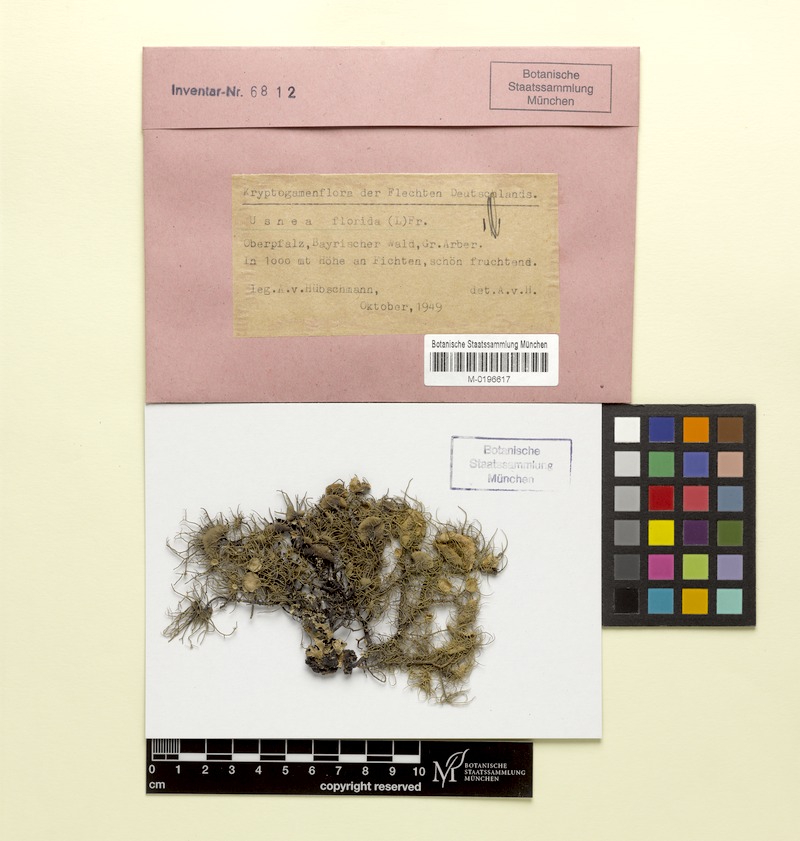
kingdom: Fungi
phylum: Ascomycota
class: Lecanoromycetes
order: Lecanorales
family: Parmeliaceae
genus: Usnea
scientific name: Usnea florida
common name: Witches' whiskers lichen
